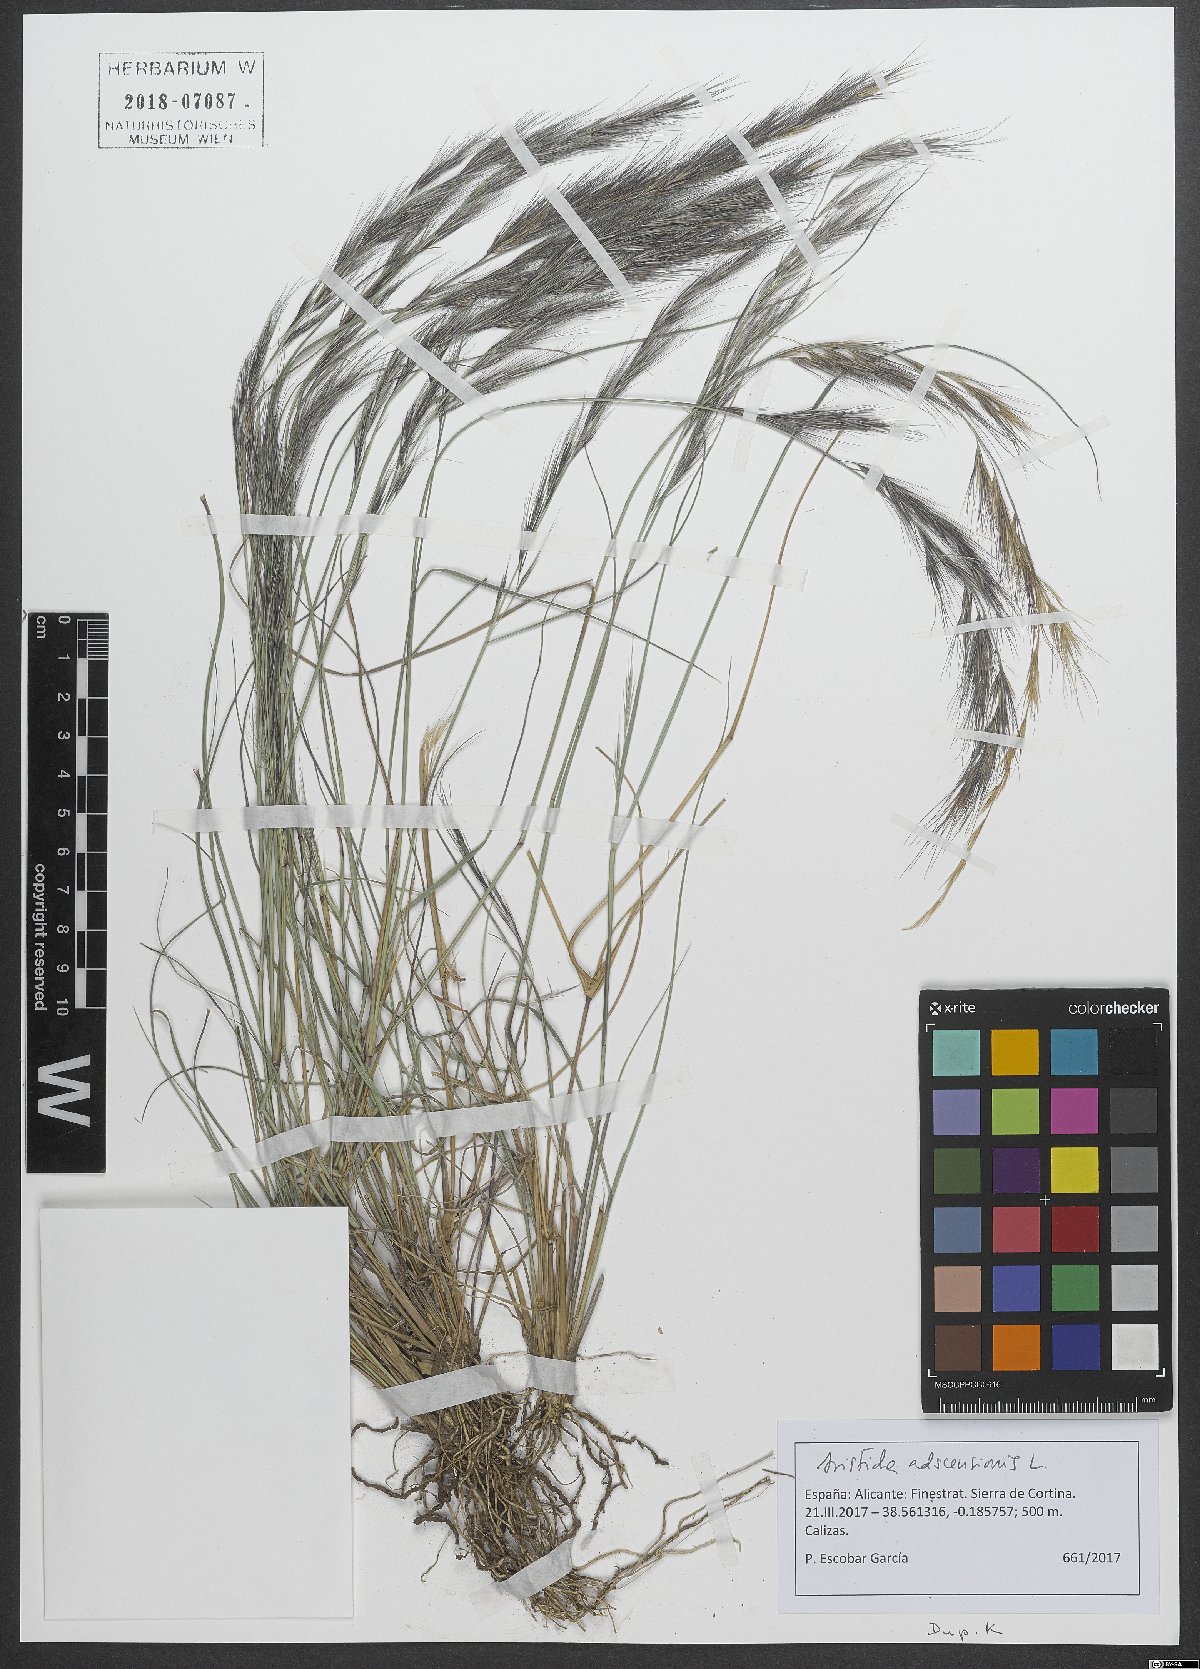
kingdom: Plantae
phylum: Tracheophyta
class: Liliopsida
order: Poales
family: Poaceae
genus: Aristida
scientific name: Aristida adscensionis
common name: Sixweeks threeawn
